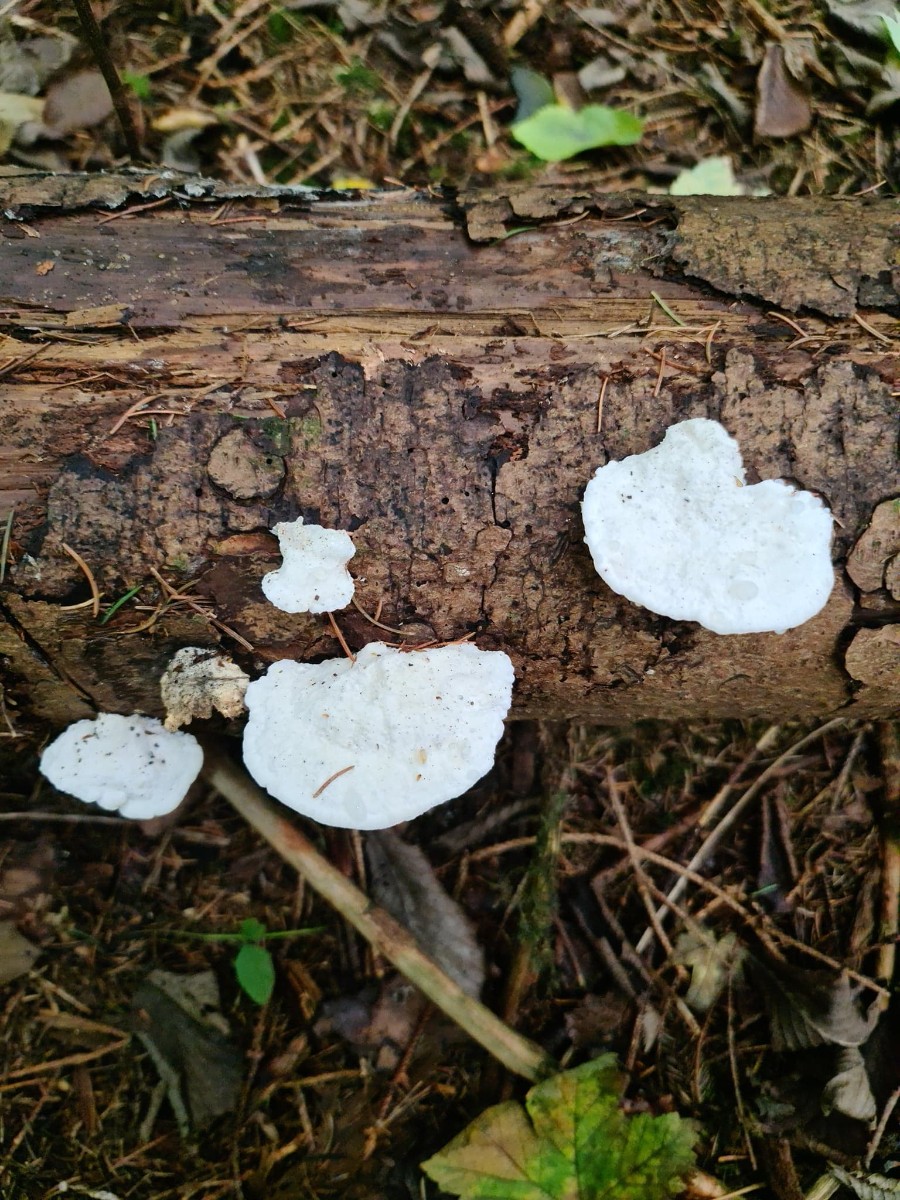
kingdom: Fungi
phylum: Basidiomycota
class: Agaricomycetes
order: Polyporales
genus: Amaropostia
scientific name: Amaropostia stiptica
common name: bitter kødporesvamp
